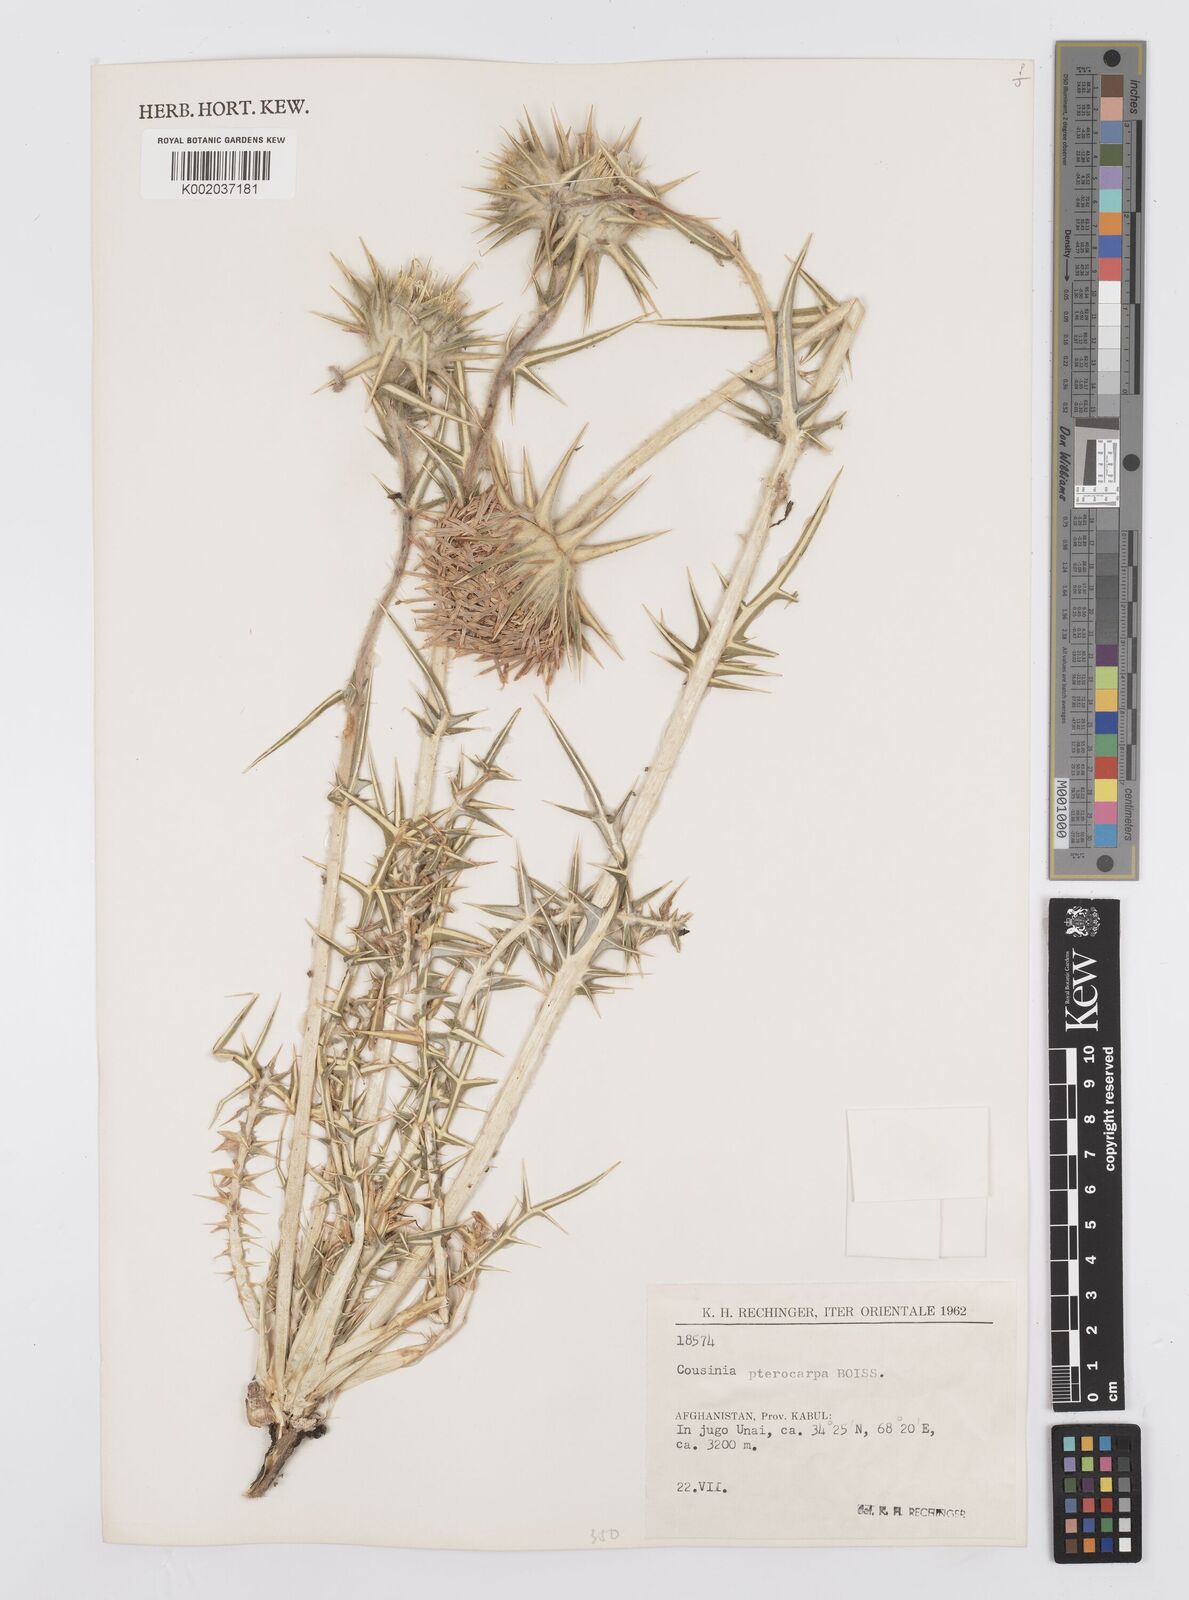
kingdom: Plantae
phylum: Tracheophyta
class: Magnoliopsida
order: Asterales
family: Asteraceae
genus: Cousinia
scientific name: Cousinia pterocarpa
